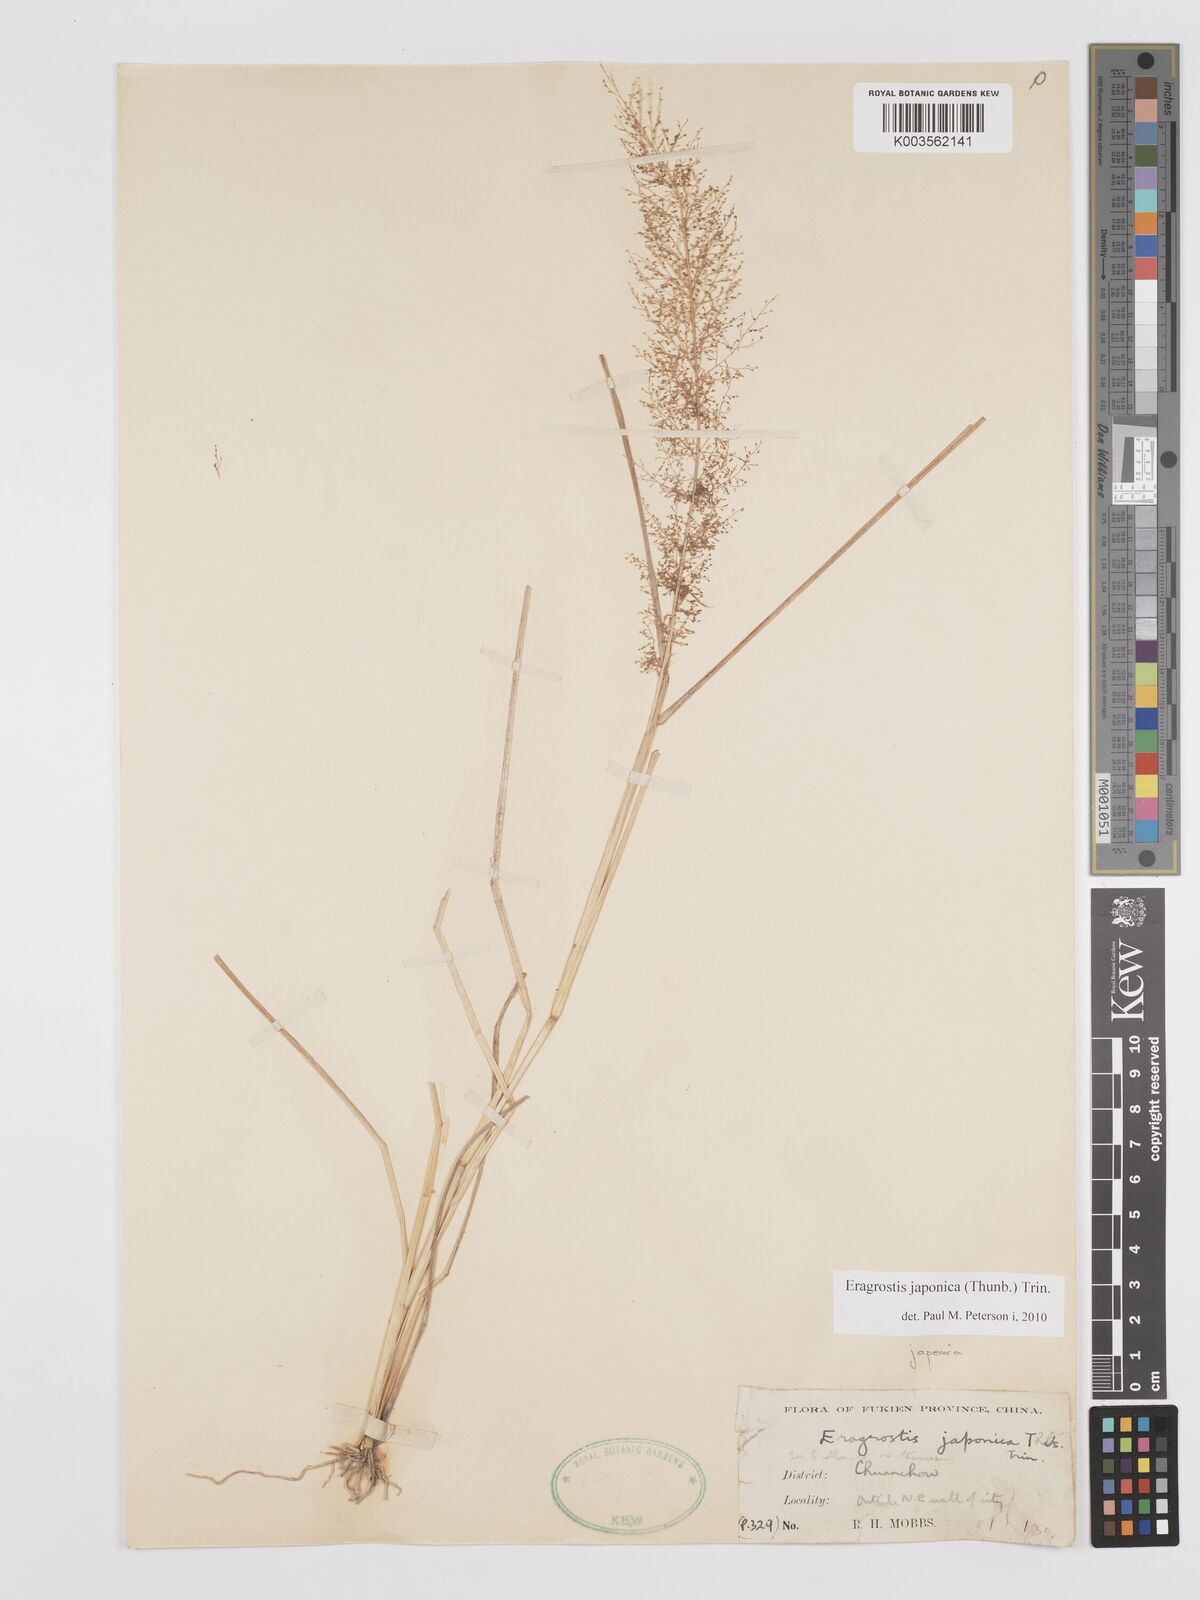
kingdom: Plantae
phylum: Tracheophyta
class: Liliopsida
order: Poales
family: Poaceae
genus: Eragrostis
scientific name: Eragrostis japonica
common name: Pond lovegrass
